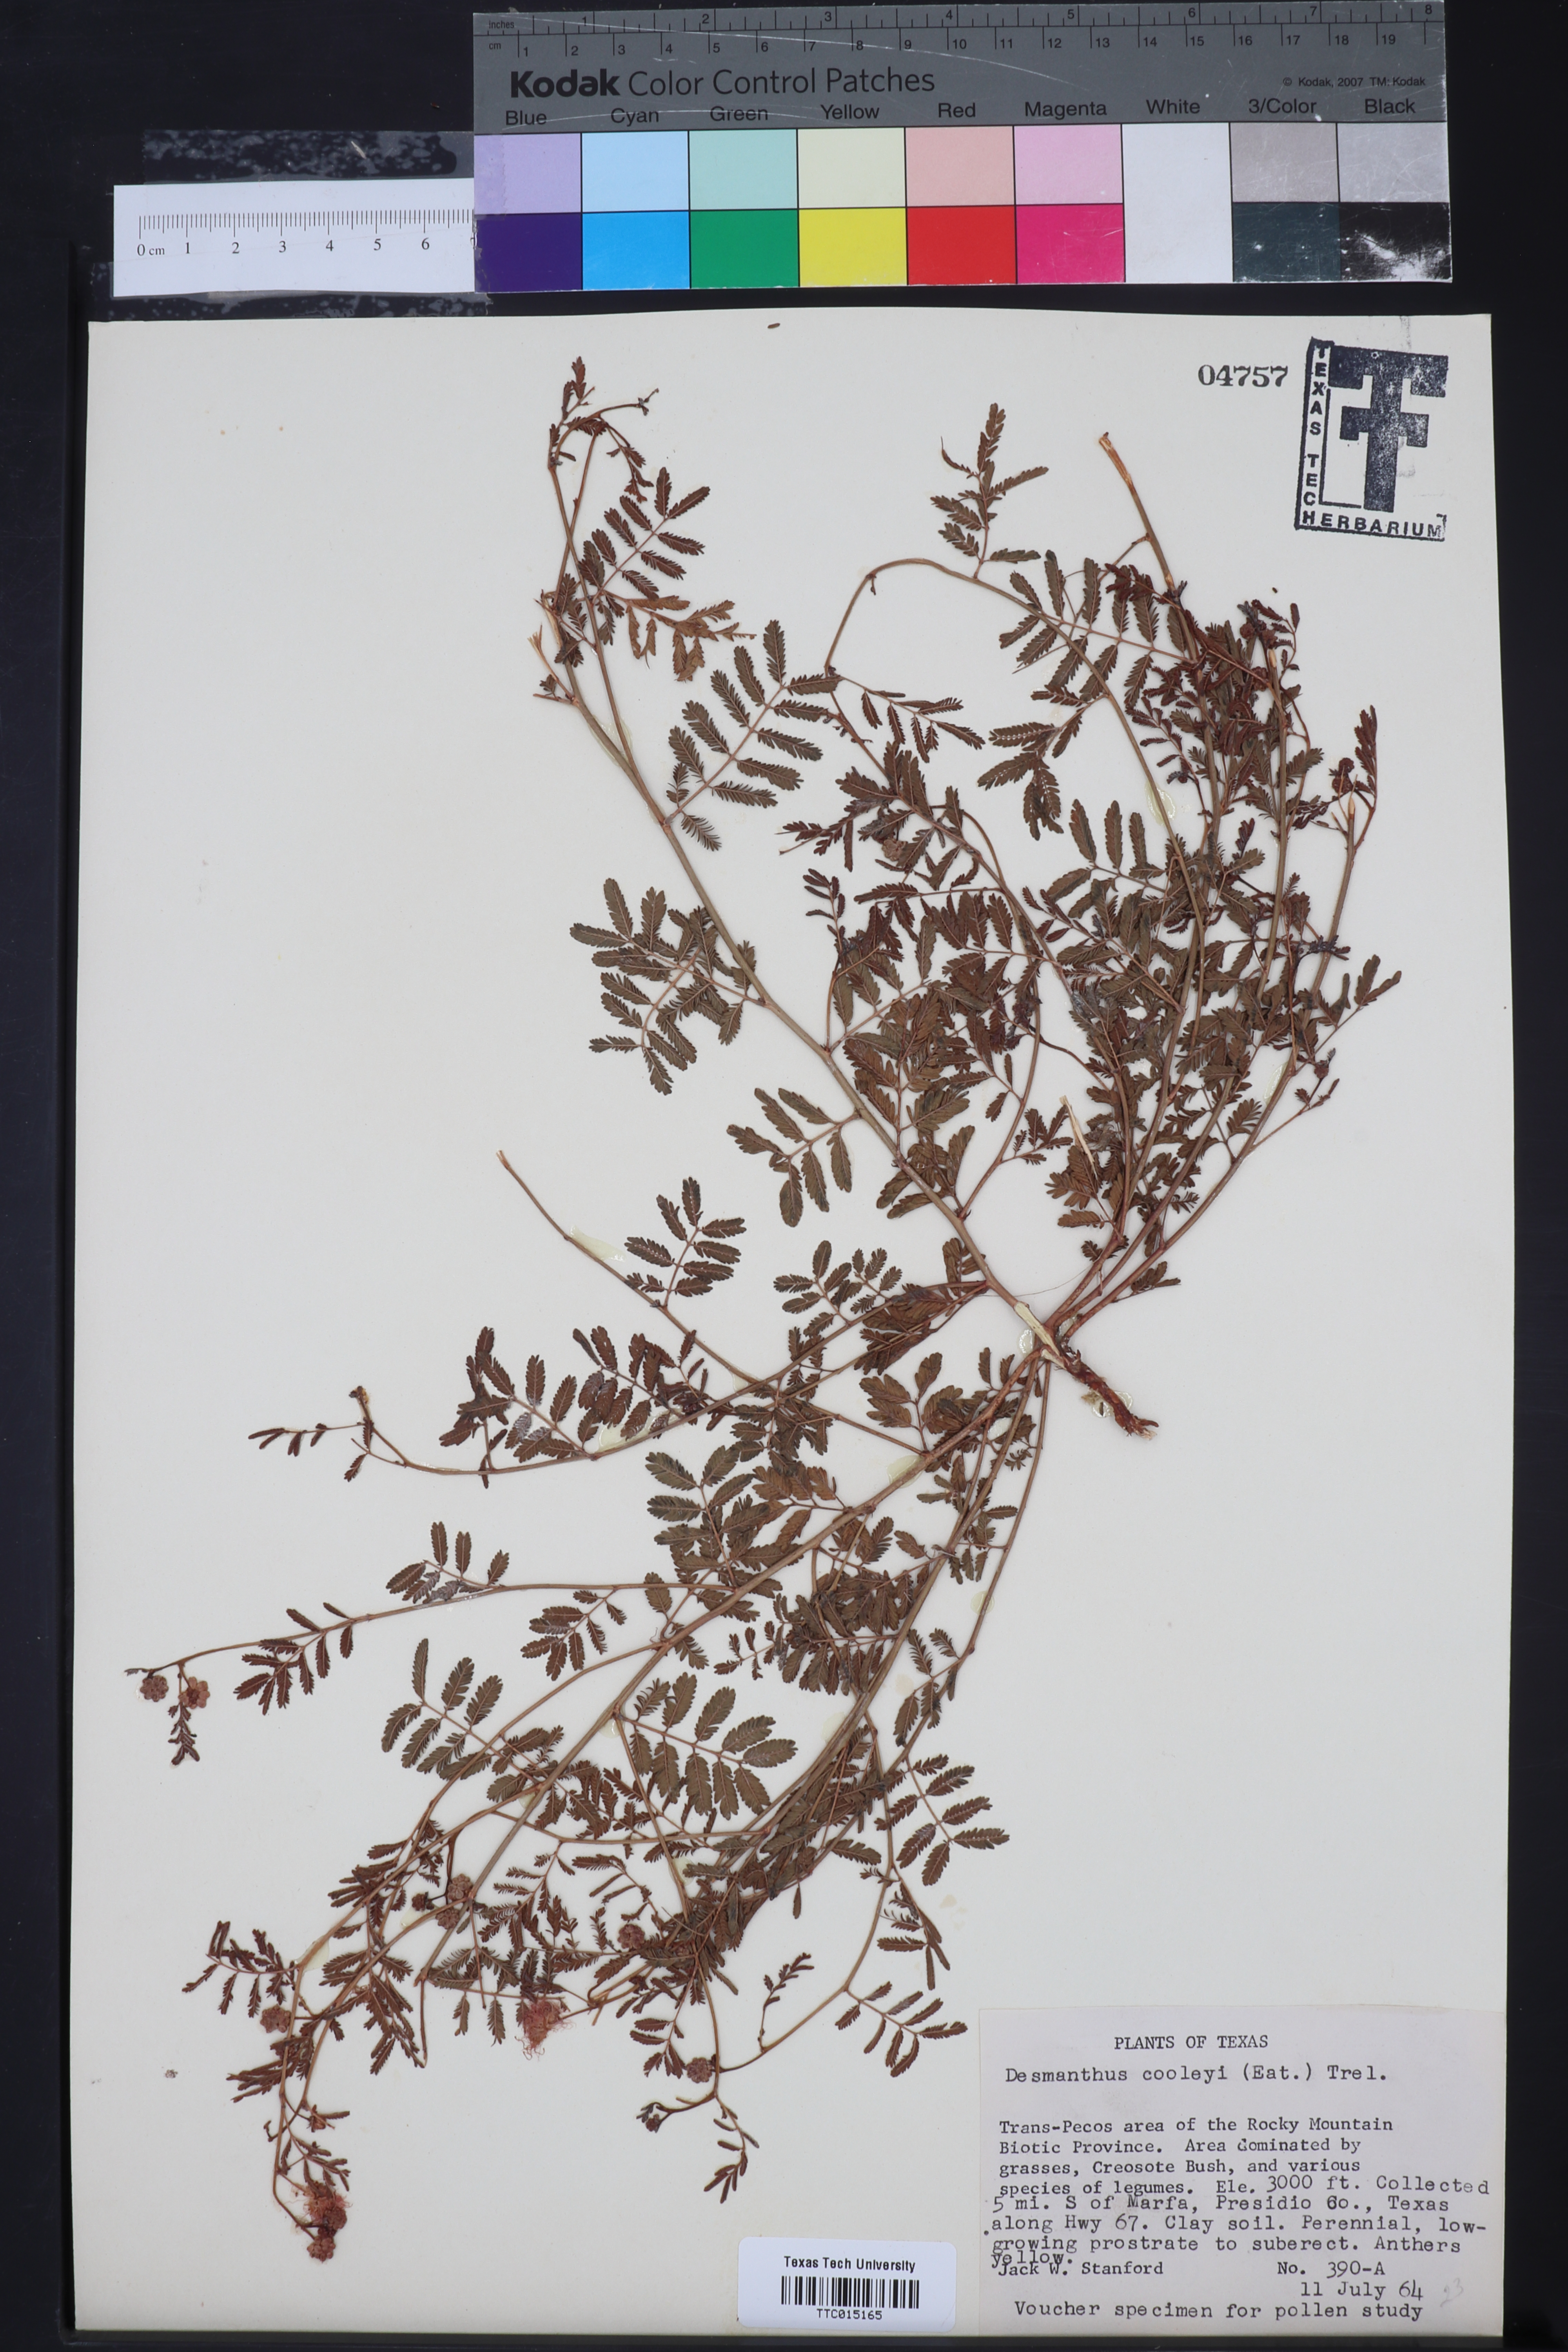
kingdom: Plantae
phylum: Tracheophyta
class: Magnoliopsida
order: Fabales
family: Fabaceae
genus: Desmanthus
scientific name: Desmanthus cooleyi
